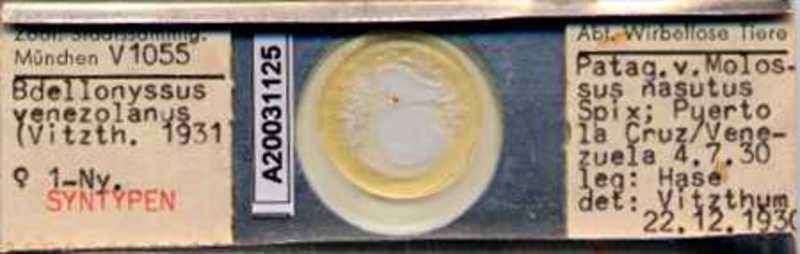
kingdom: Animalia
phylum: Arthropoda
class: Arachnida
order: Mesostigmata
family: Macronyssidae
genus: Chiroptonyssus
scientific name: Chiroptonyssus venezolanus
